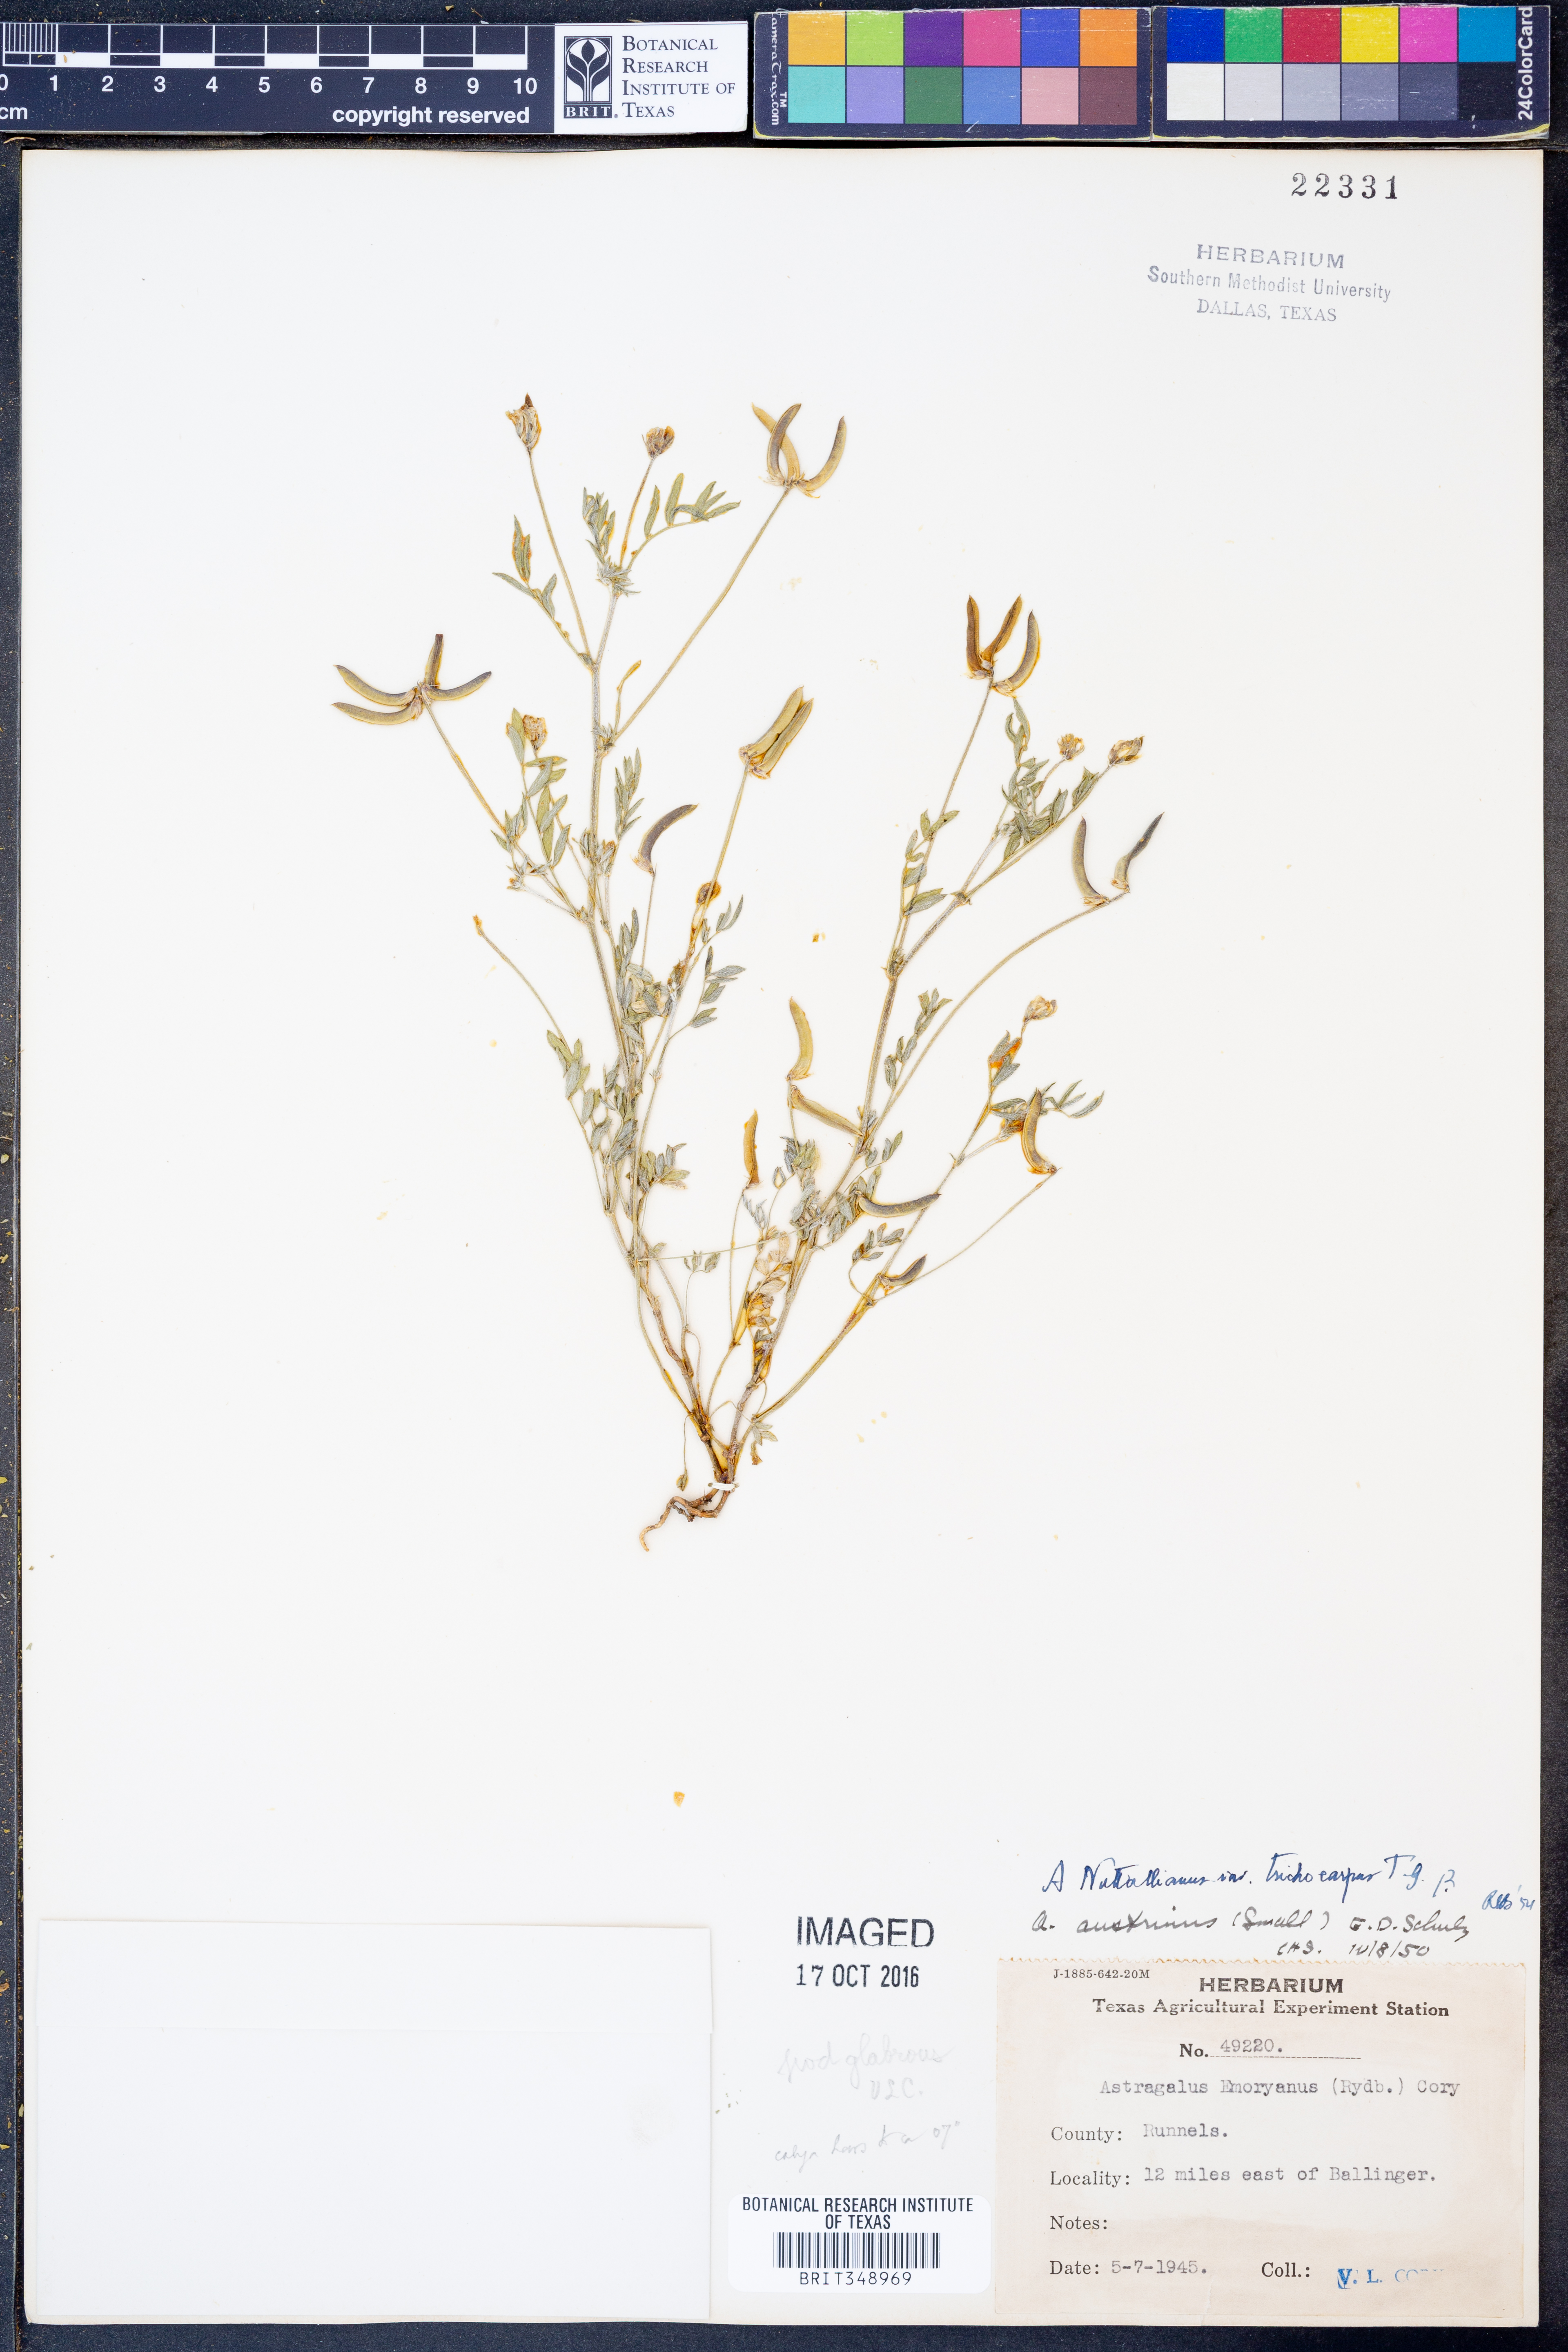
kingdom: Plantae
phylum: Tracheophyta
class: Magnoliopsida
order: Fabales
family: Fabaceae
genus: Astragalus
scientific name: Astragalus nuttallianus
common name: Smallflowered milkvetch
